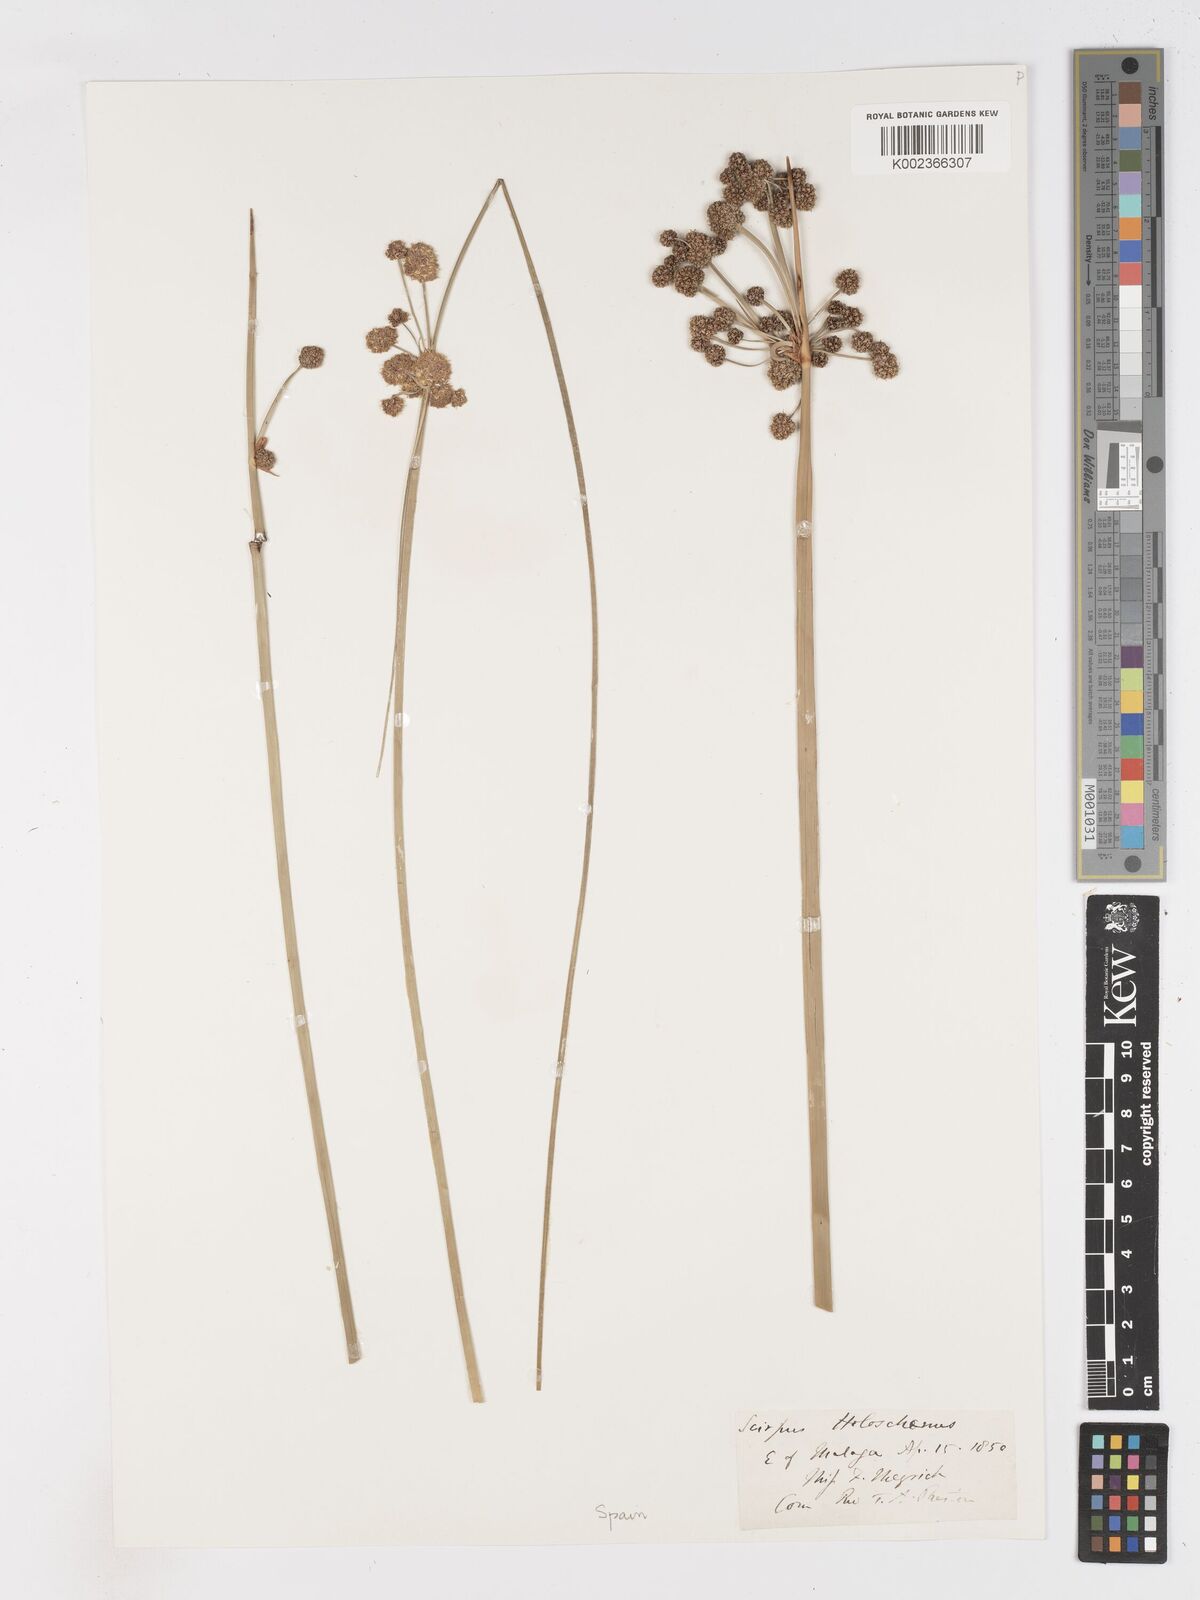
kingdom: Plantae
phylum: Tracheophyta
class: Liliopsida
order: Poales
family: Cyperaceae
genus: Scirpoides
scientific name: Scirpoides holoschoenus
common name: Round-headed club-rush
